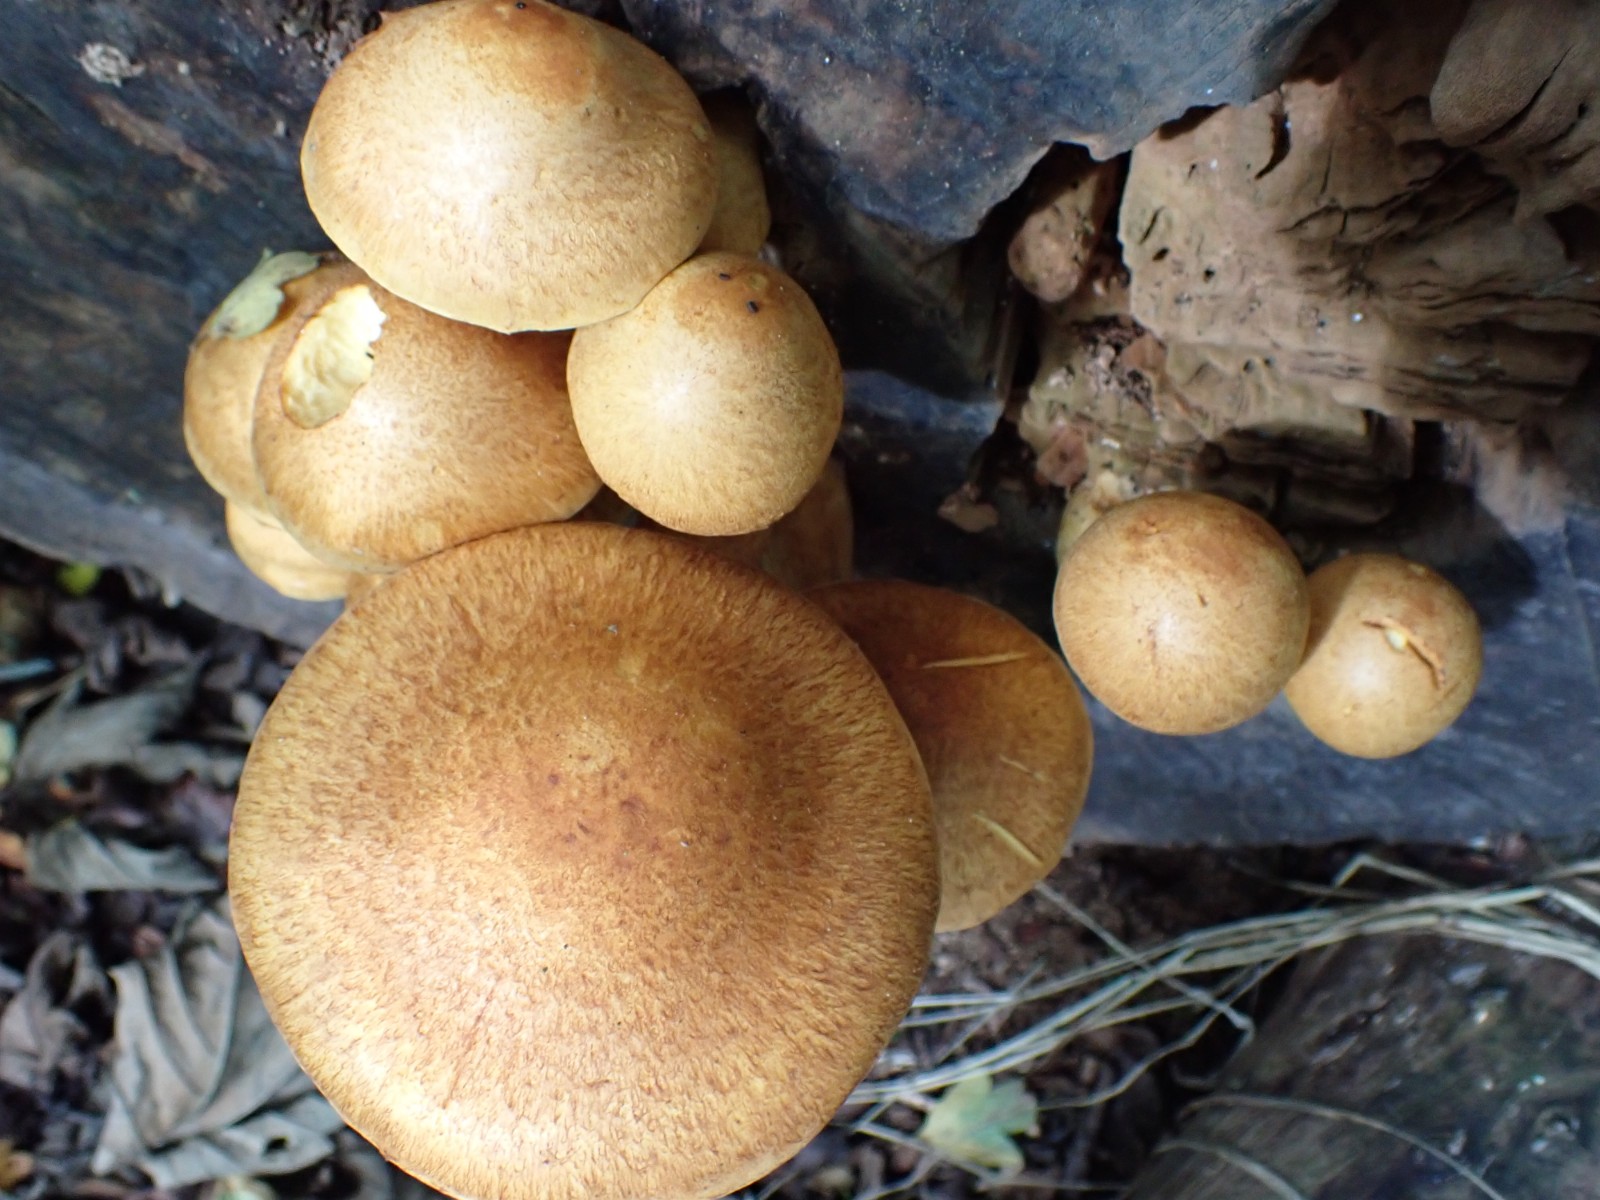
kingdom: Fungi
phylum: Basidiomycota
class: Agaricomycetes
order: Agaricales
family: Hymenogastraceae
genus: Gymnopilus
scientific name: Gymnopilus spectabilis
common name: fibret flammehat
